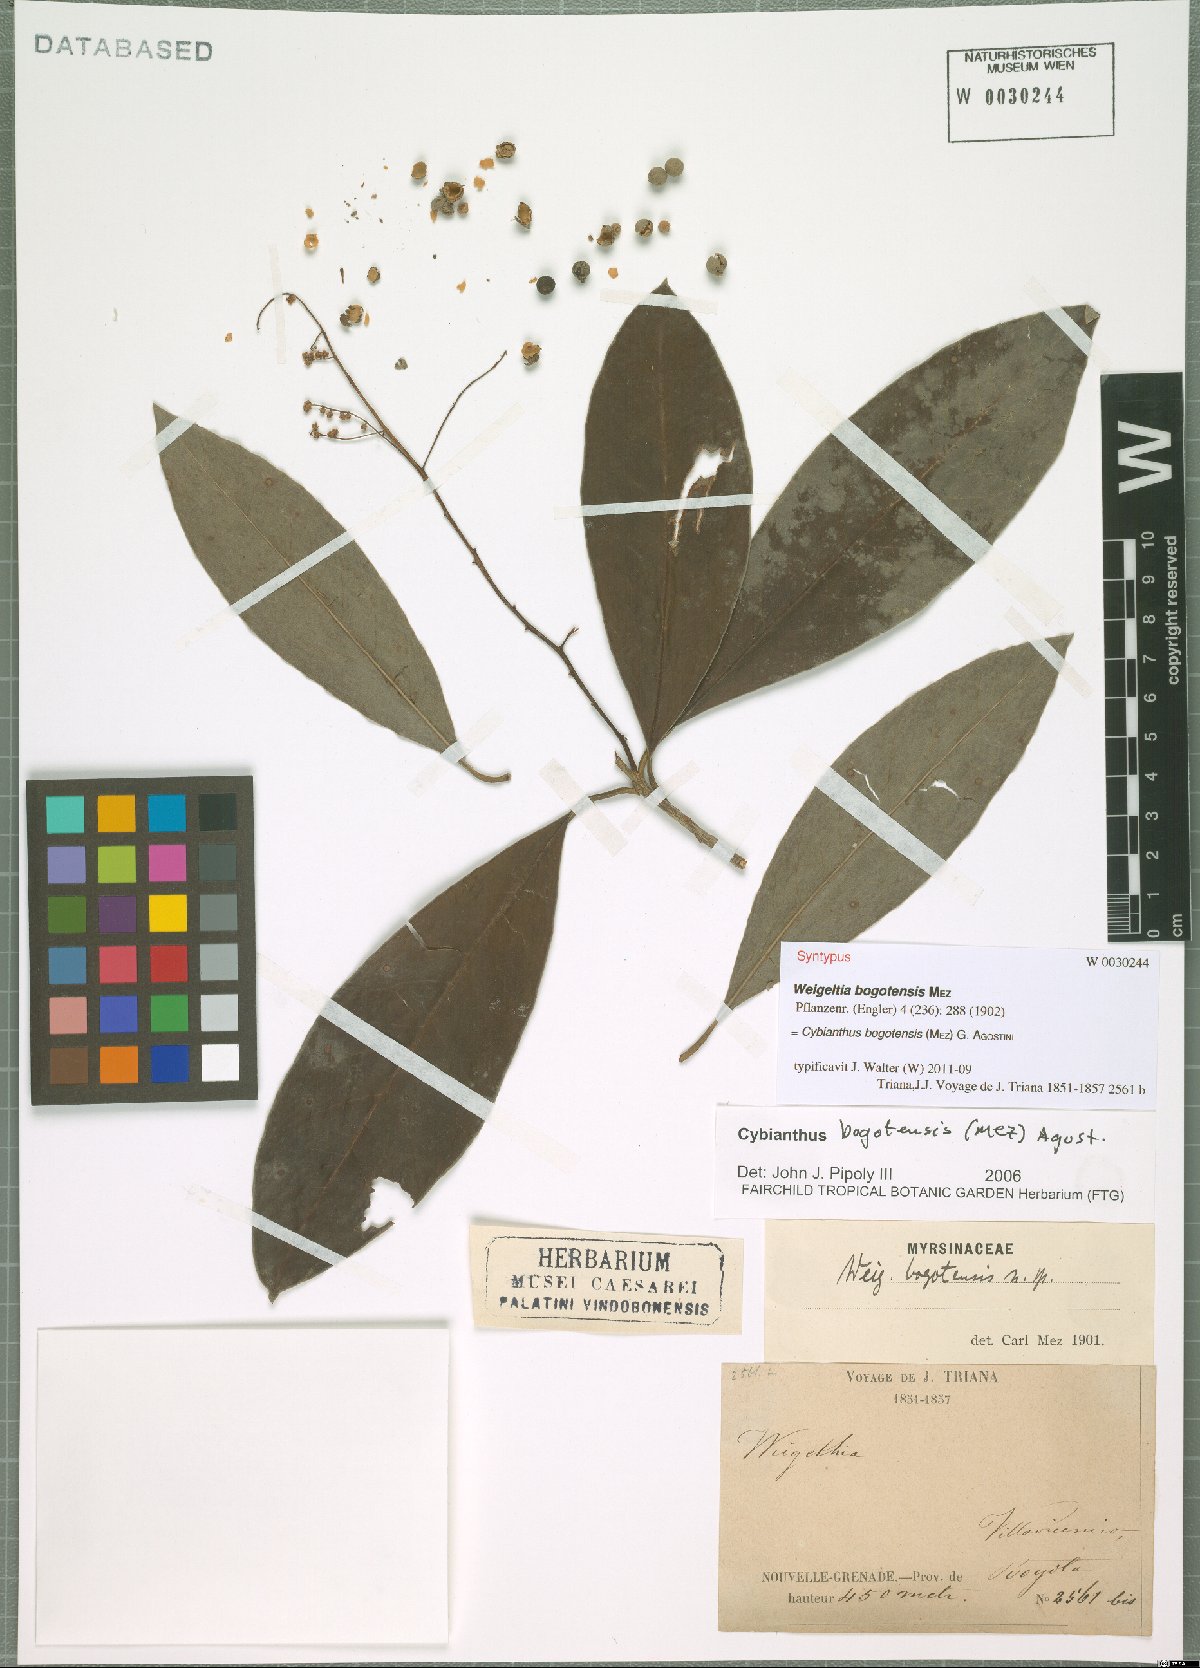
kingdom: Plantae
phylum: Tracheophyta
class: Magnoliopsida
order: Ericales
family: Primulaceae
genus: Cybianthus
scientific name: Cybianthus bogotensis
